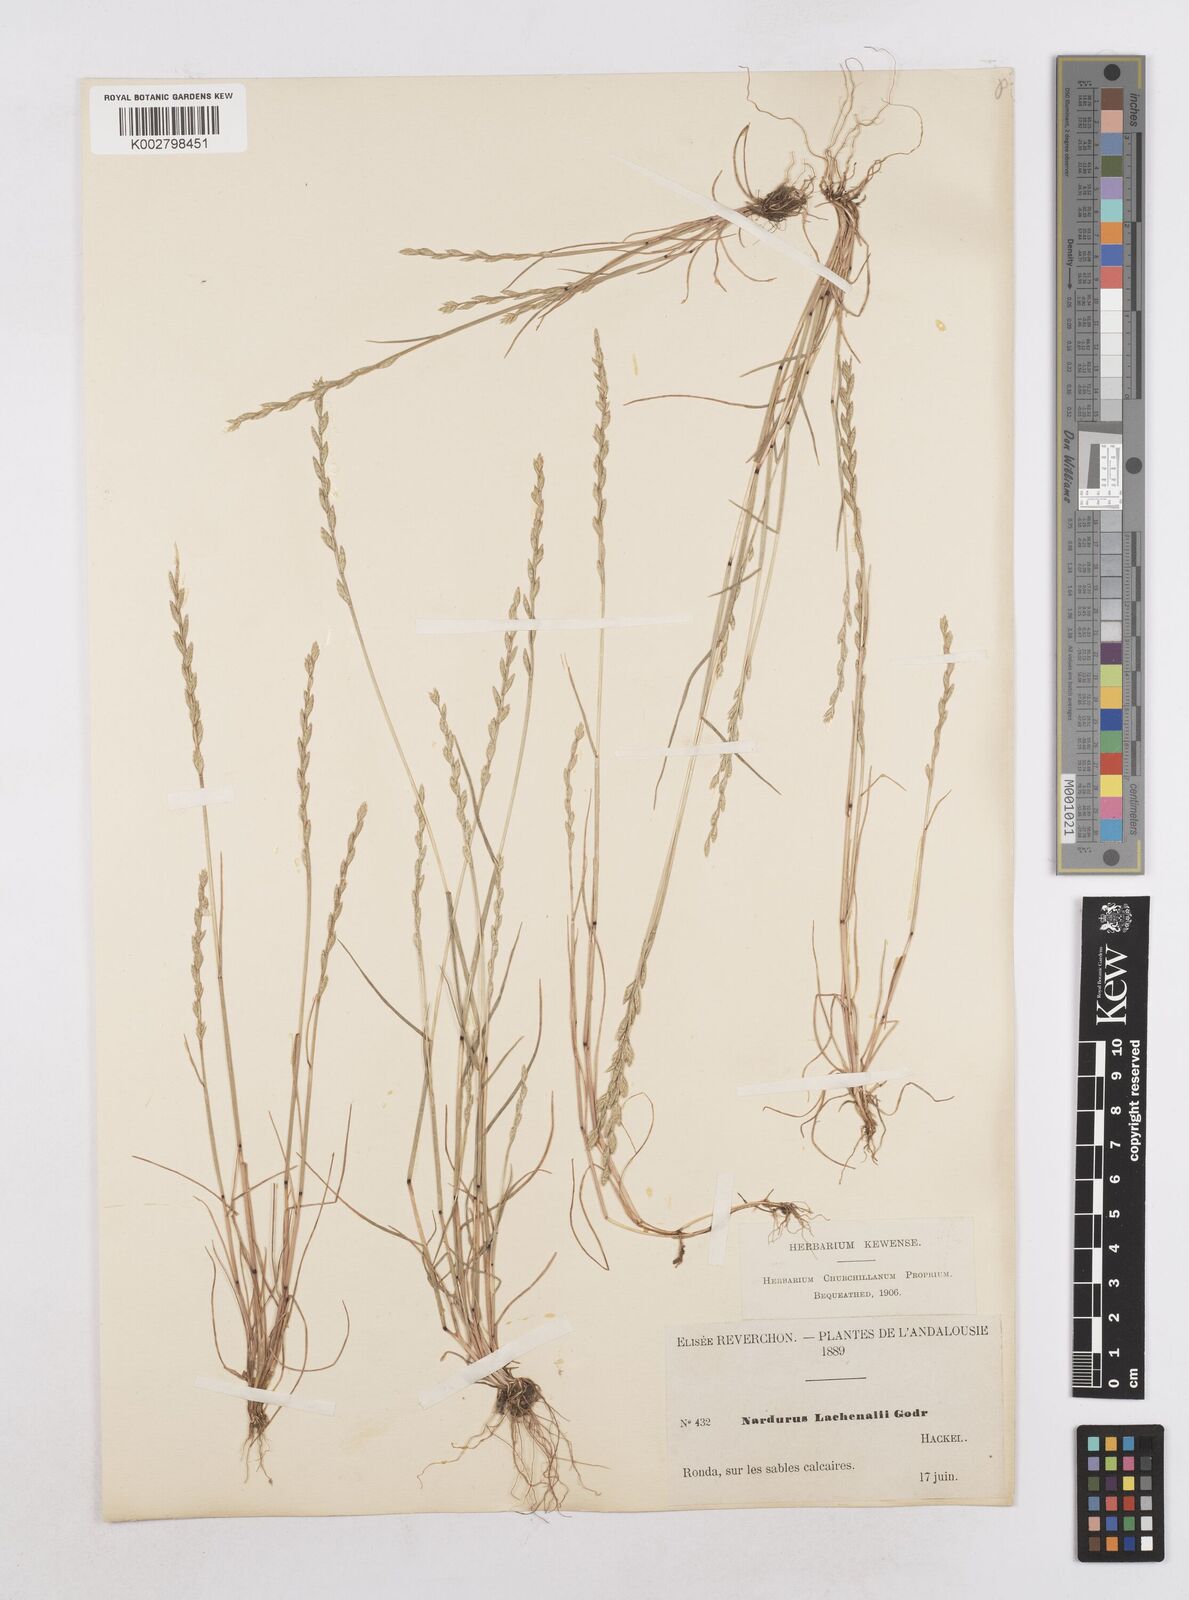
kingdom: Plantae
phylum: Tracheophyta
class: Liliopsida
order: Poales
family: Poaceae
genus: Festuca
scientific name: Festuca lachenalii
